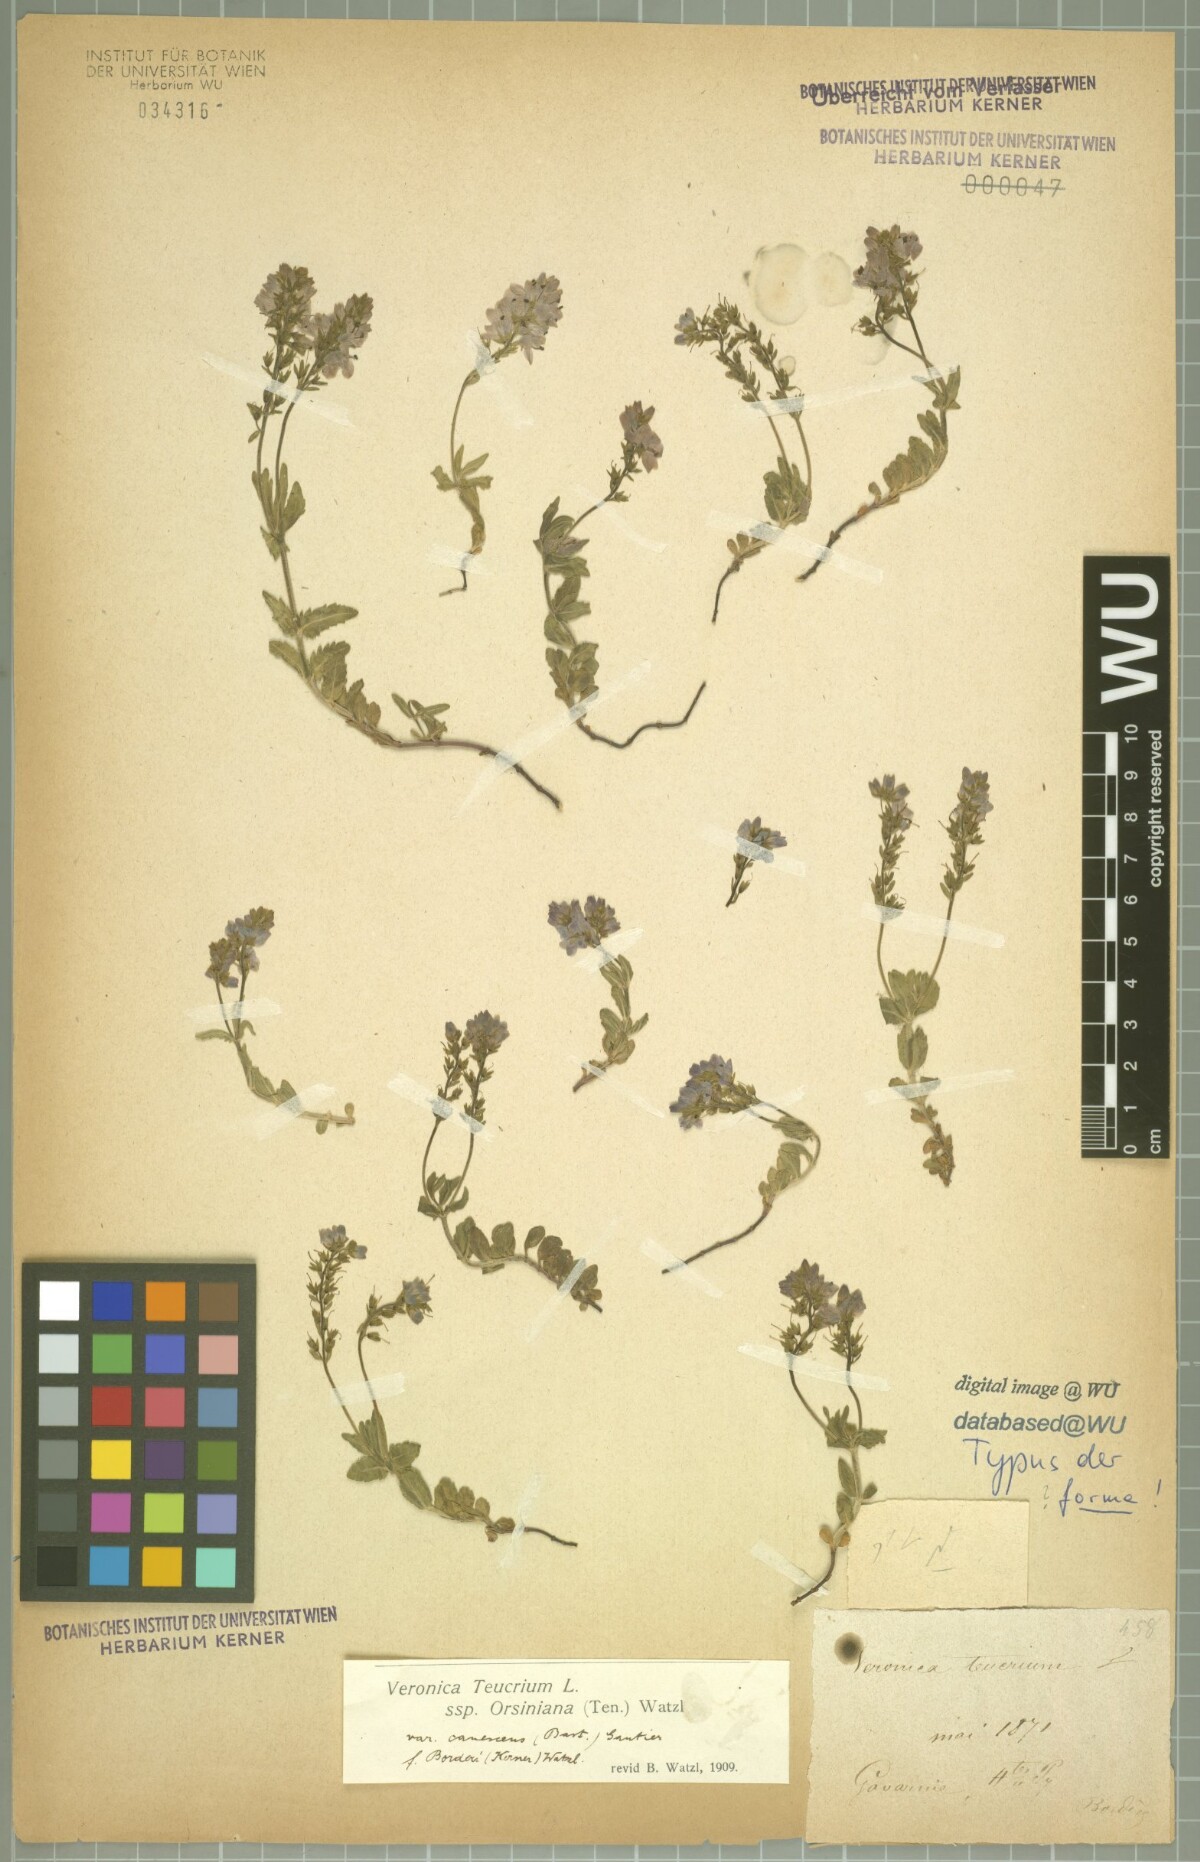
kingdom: Plantae
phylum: Tracheophyta
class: Magnoliopsida
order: Lamiales
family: Plantaginaceae
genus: Veronica
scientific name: Veronica teucrium
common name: Large speedwell
